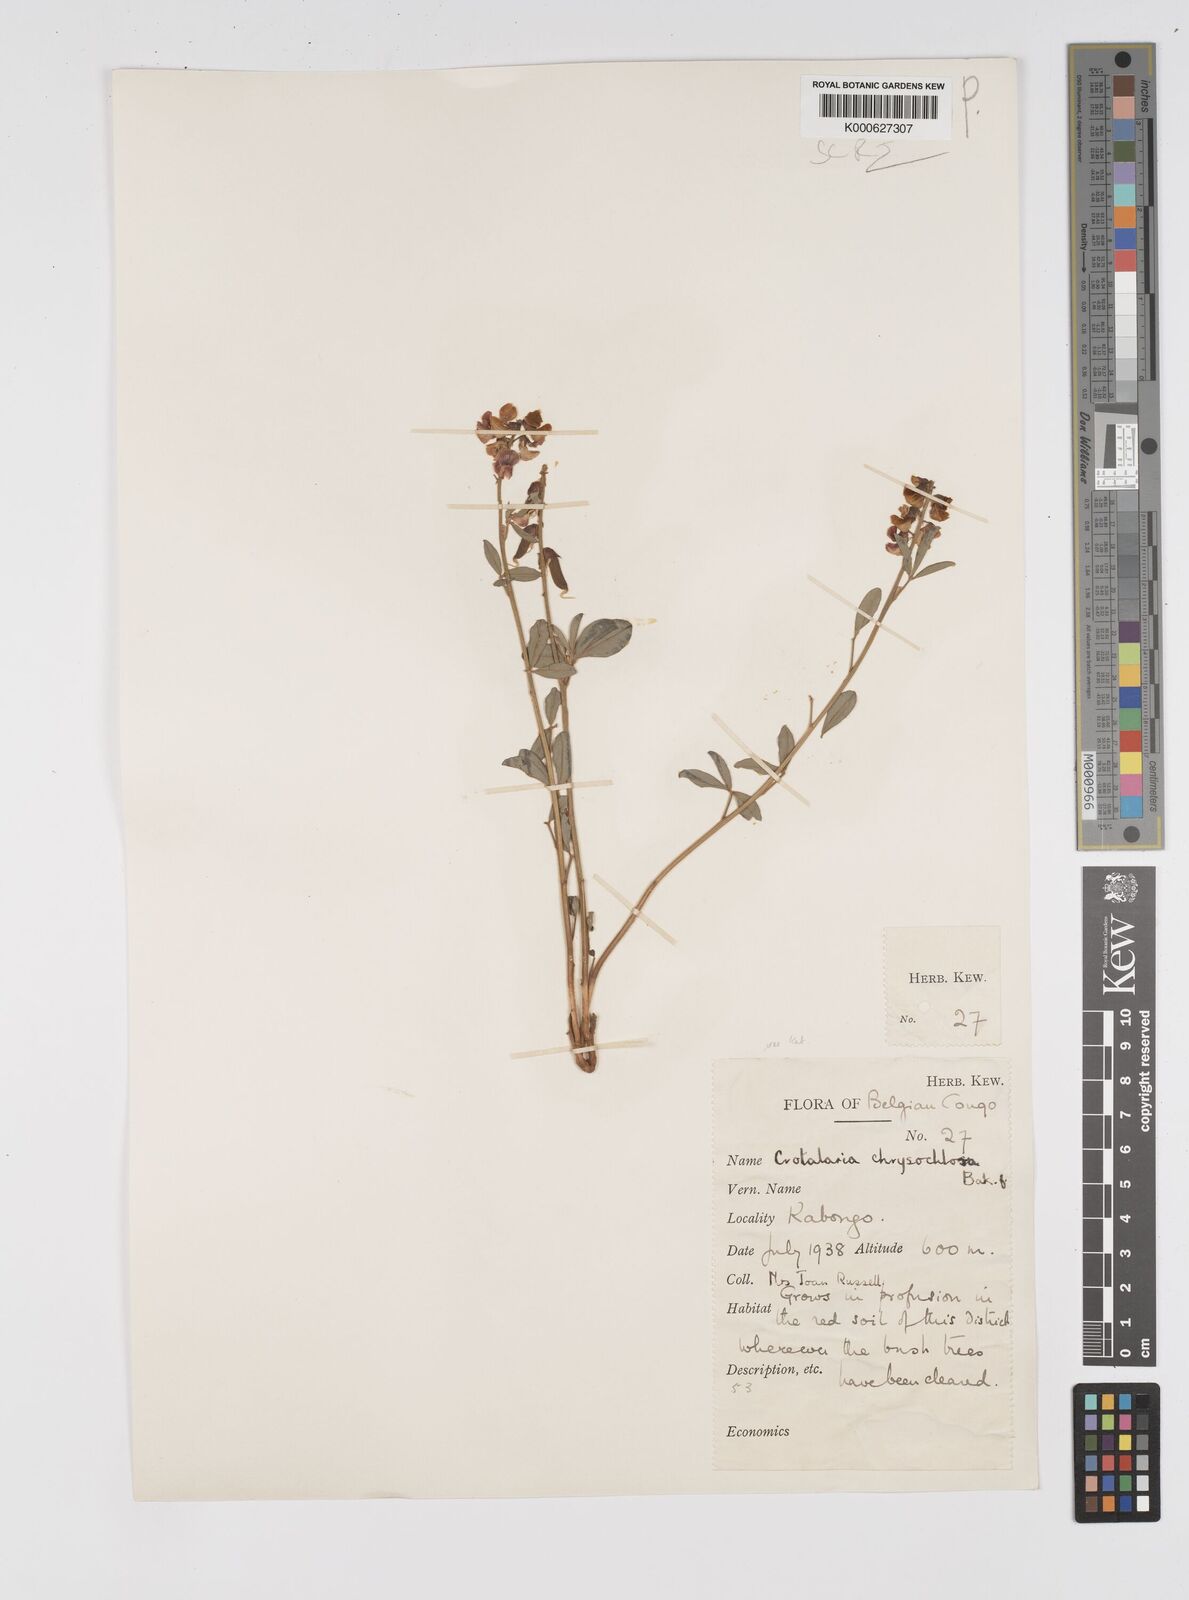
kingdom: Plantae
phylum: Tracheophyta
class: Magnoliopsida
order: Fabales
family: Fabaceae
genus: Crotalaria
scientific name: Crotalaria chrysochlora ex
